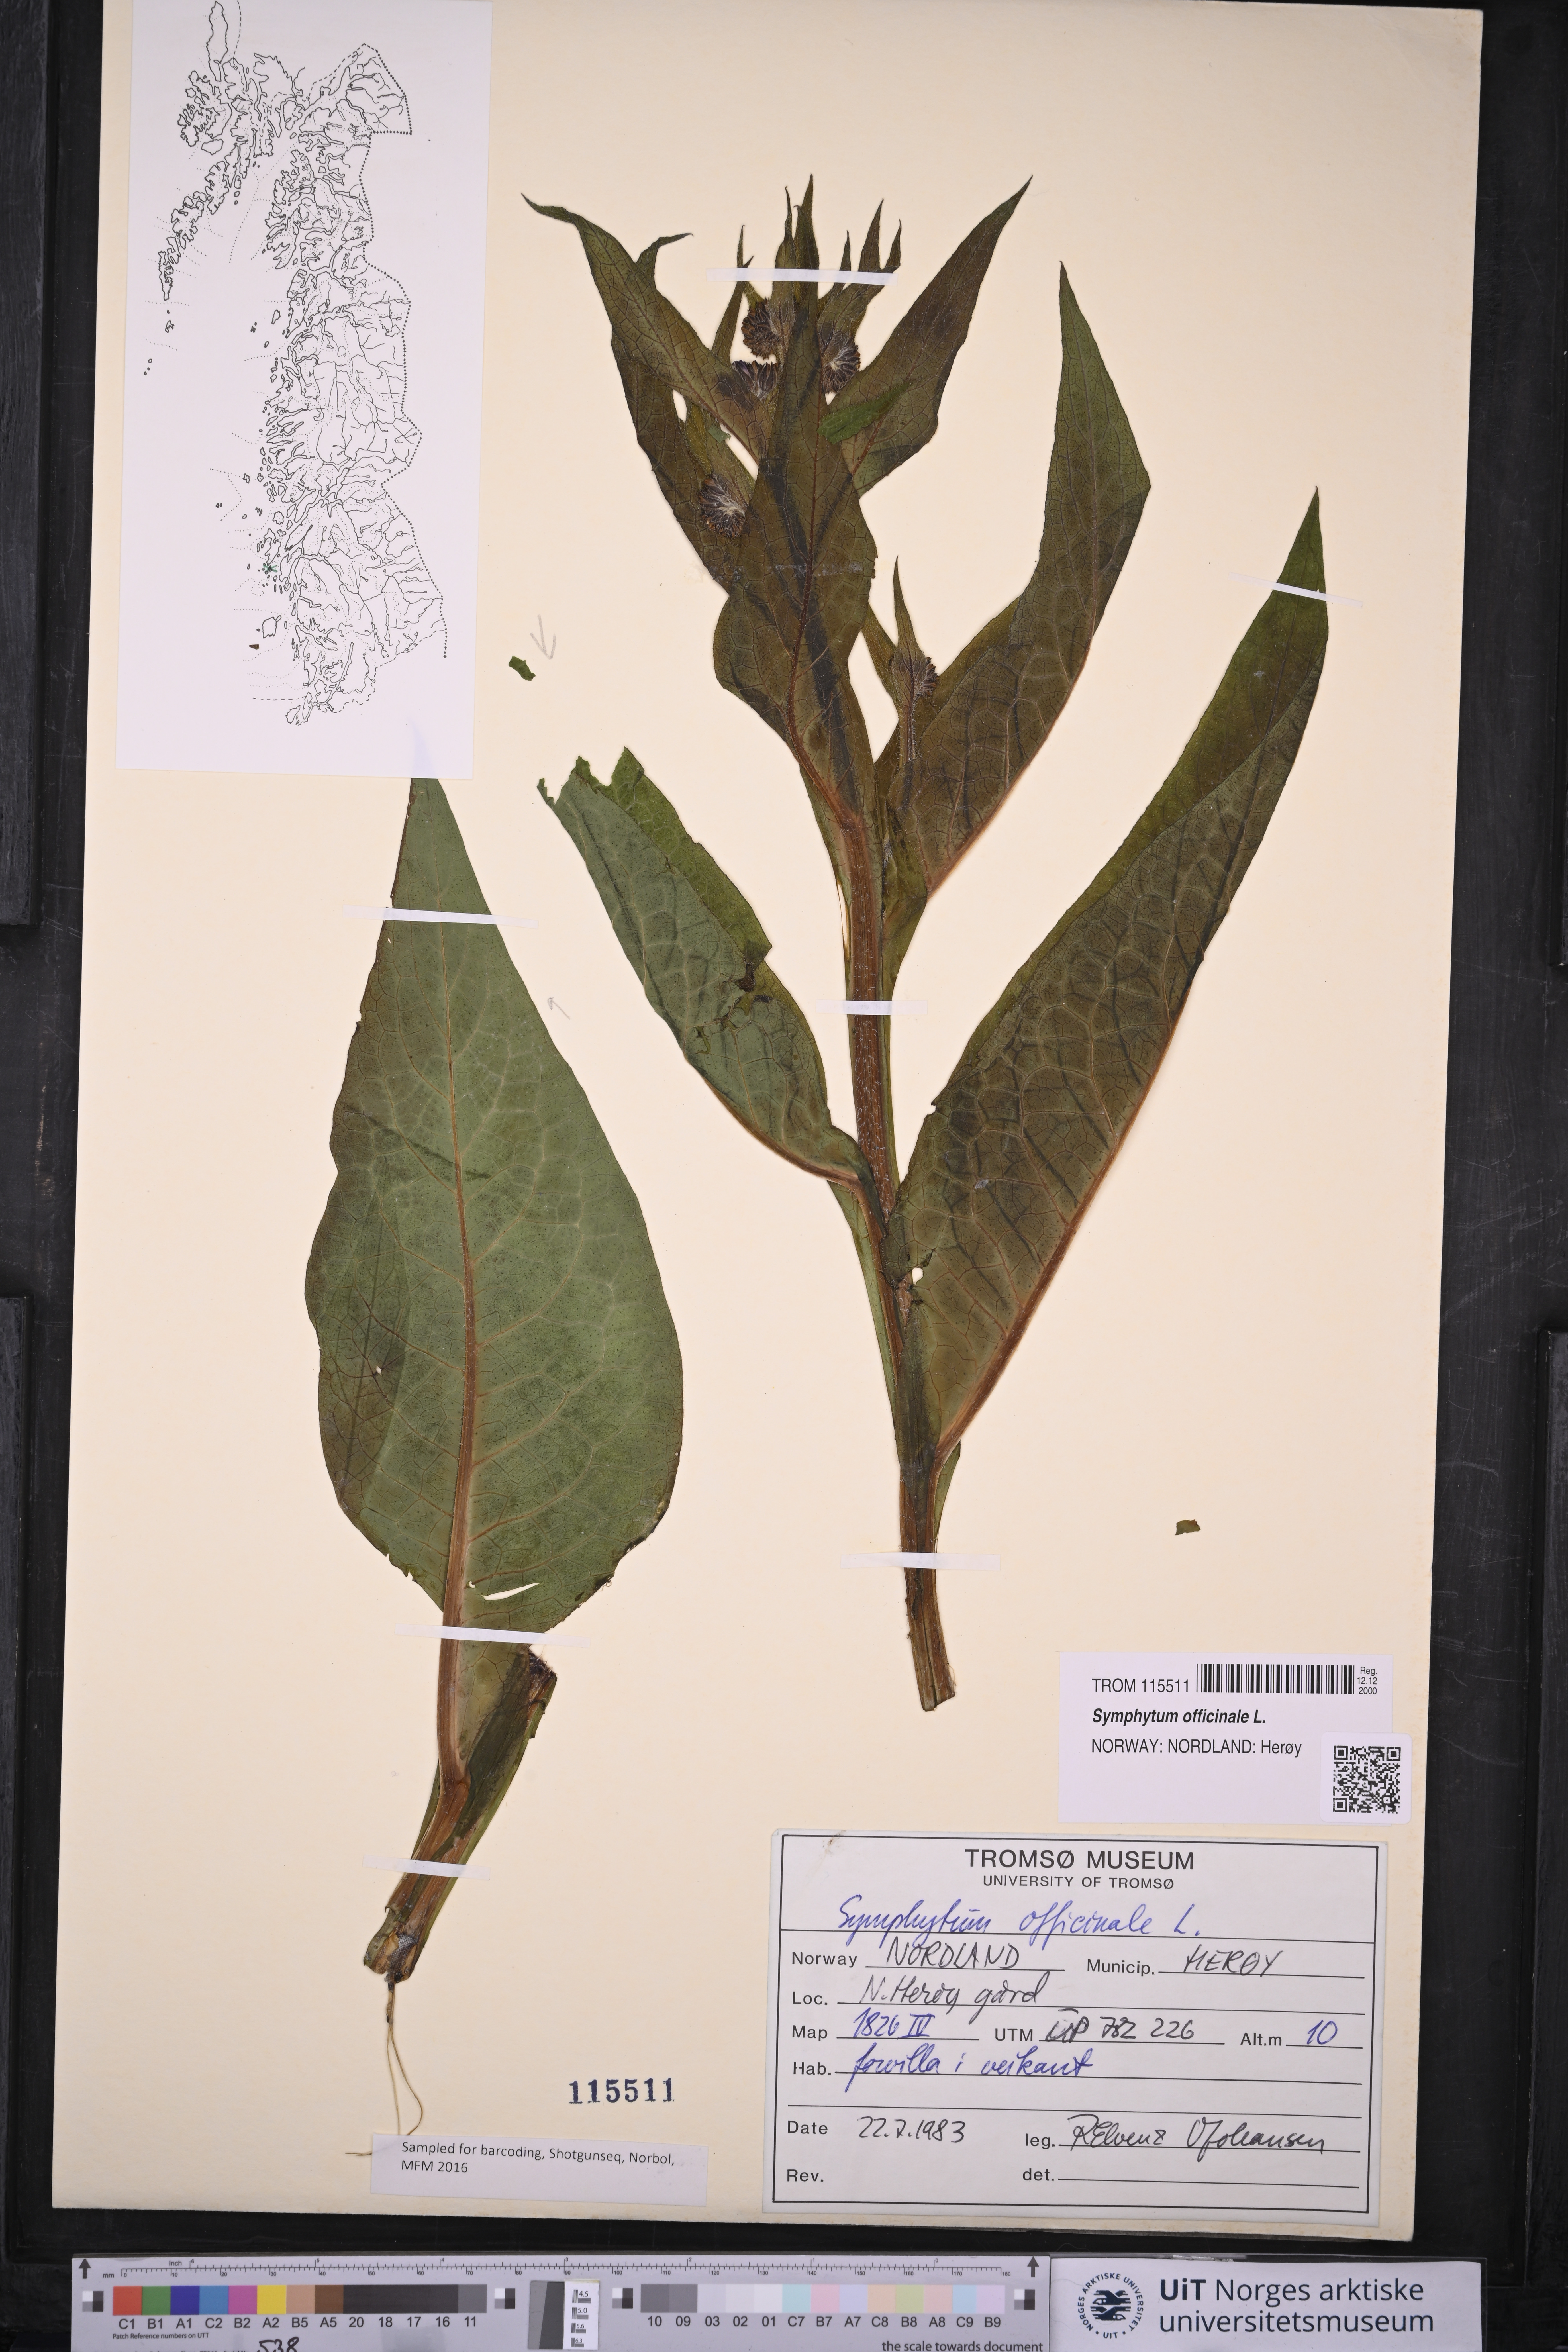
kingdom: Plantae
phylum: Tracheophyta
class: Magnoliopsida
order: Boraginales
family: Boraginaceae
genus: Symphytum
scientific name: Symphytum officinale
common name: Common comfrey
